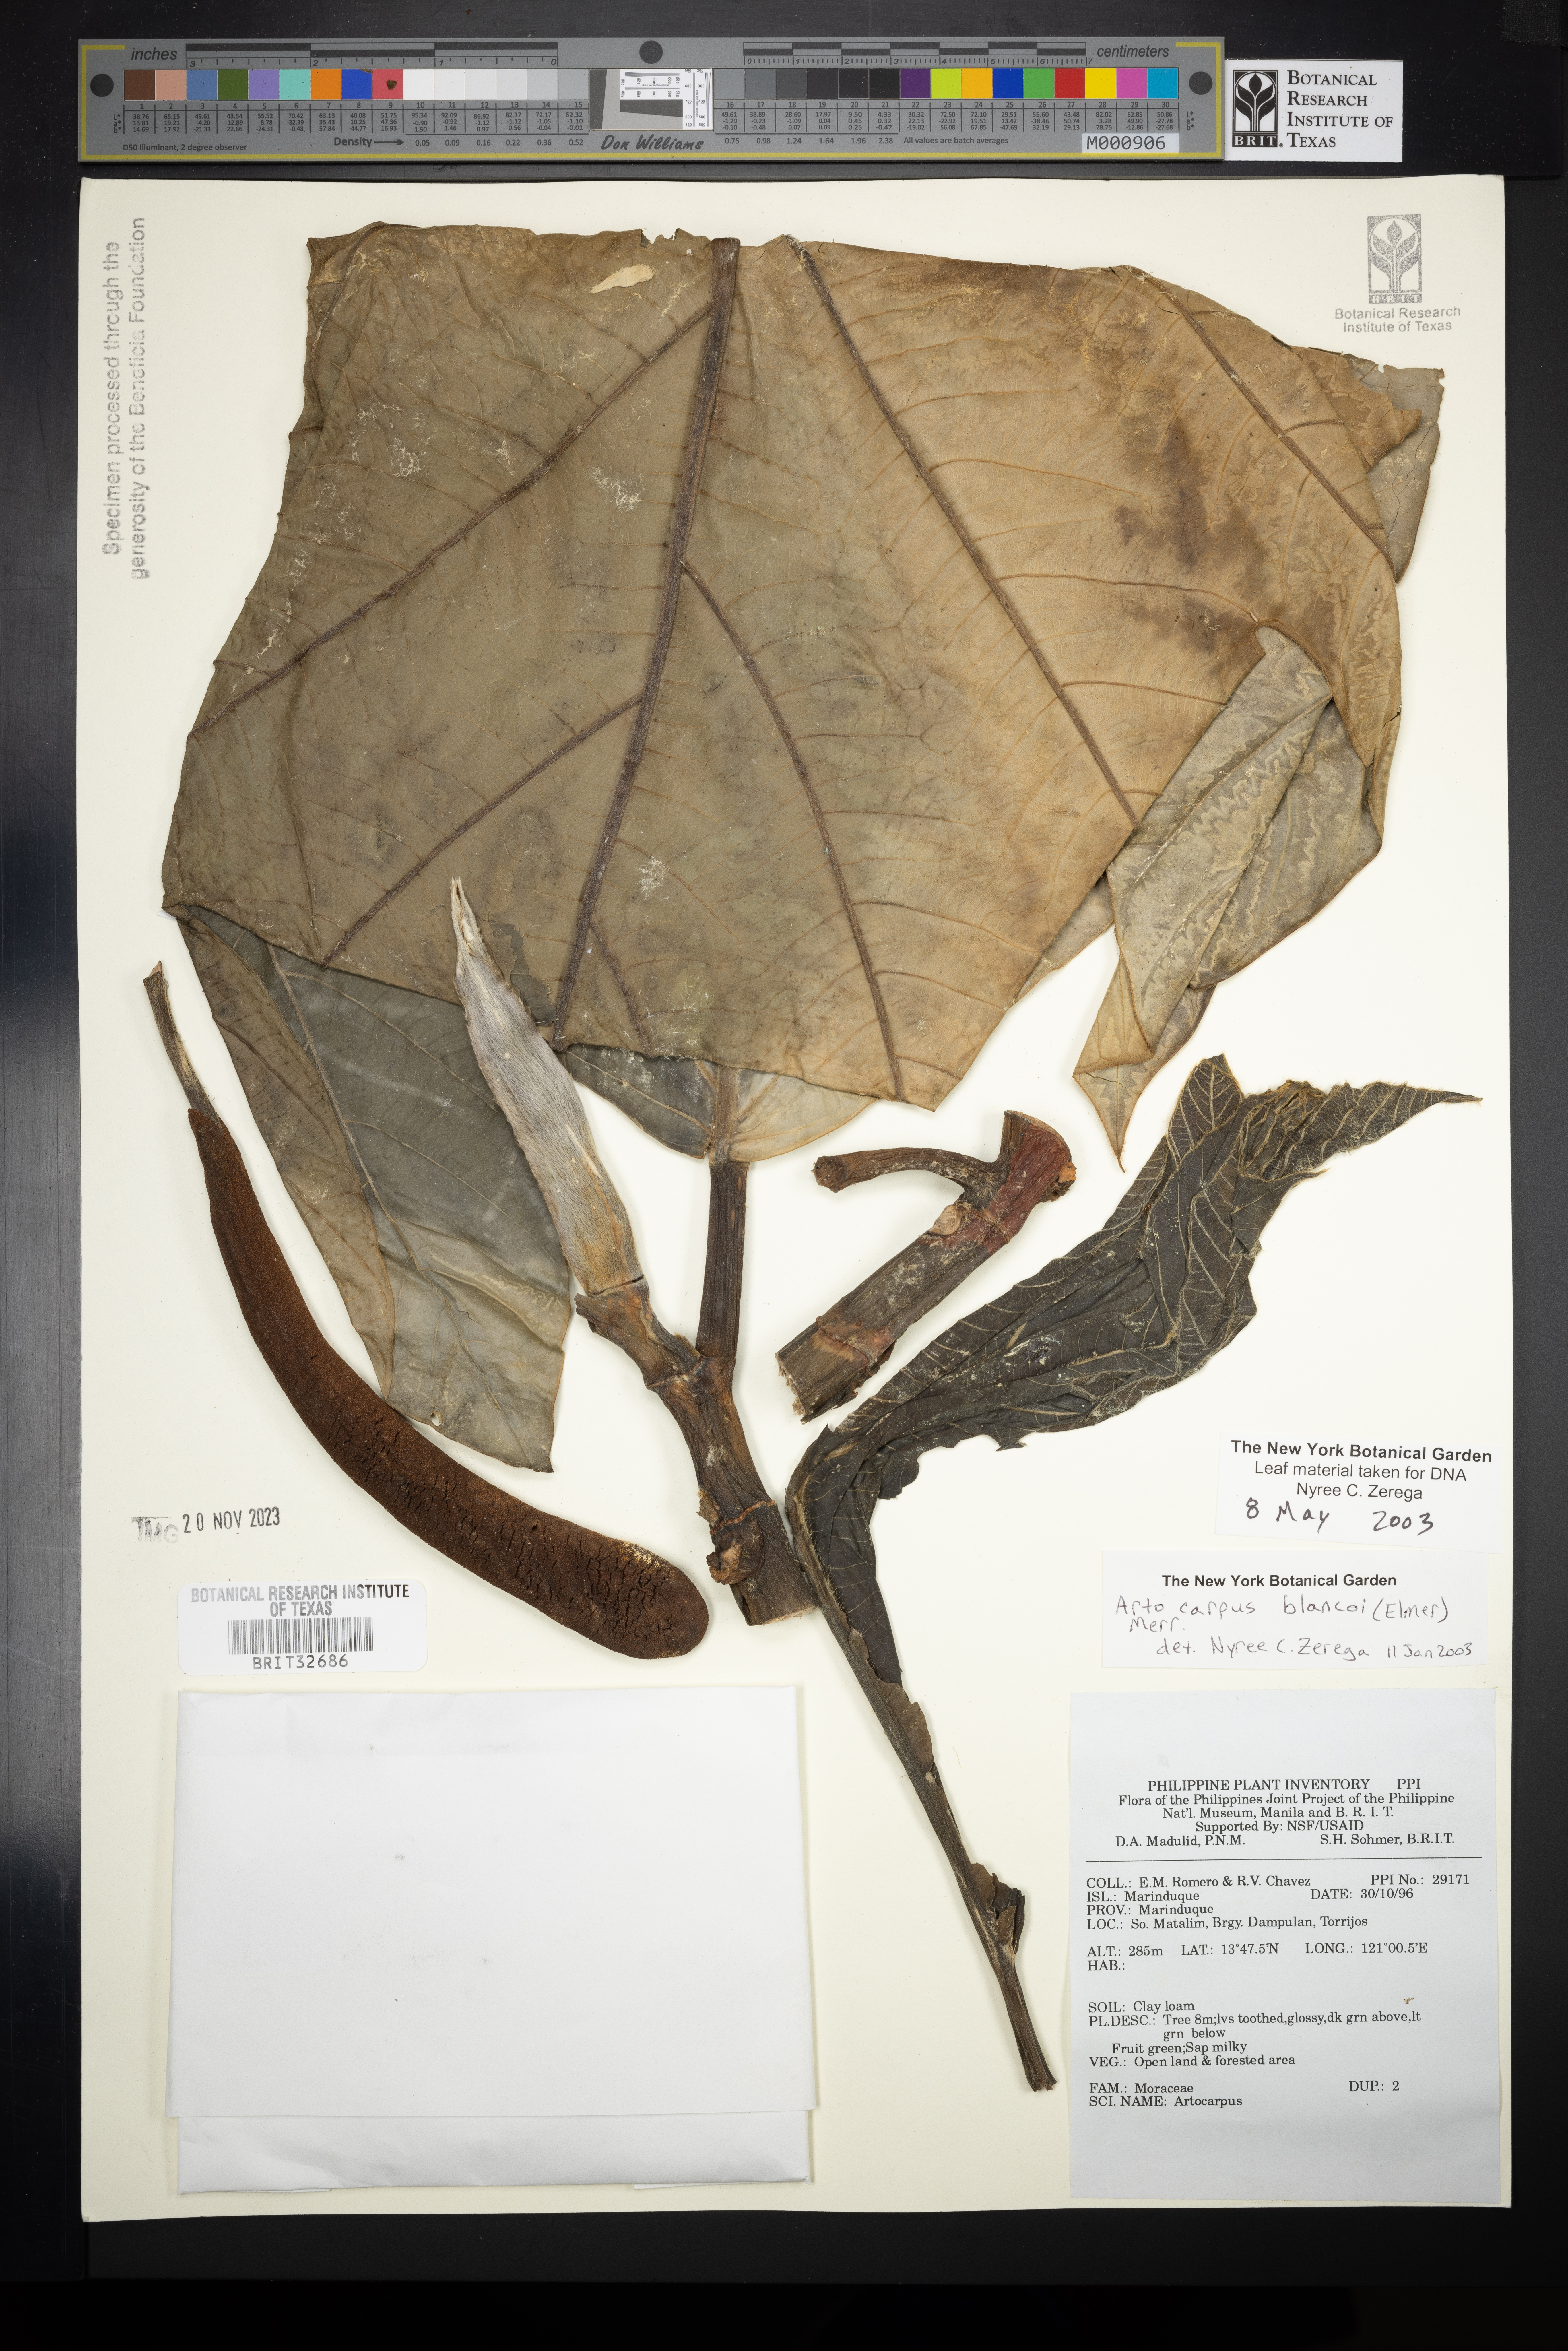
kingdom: Plantae
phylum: Tracheophyta
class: Magnoliopsida
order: Rosales
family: Moraceae
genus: Artocarpus
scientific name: Artocarpus altilis
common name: Breadfruit
